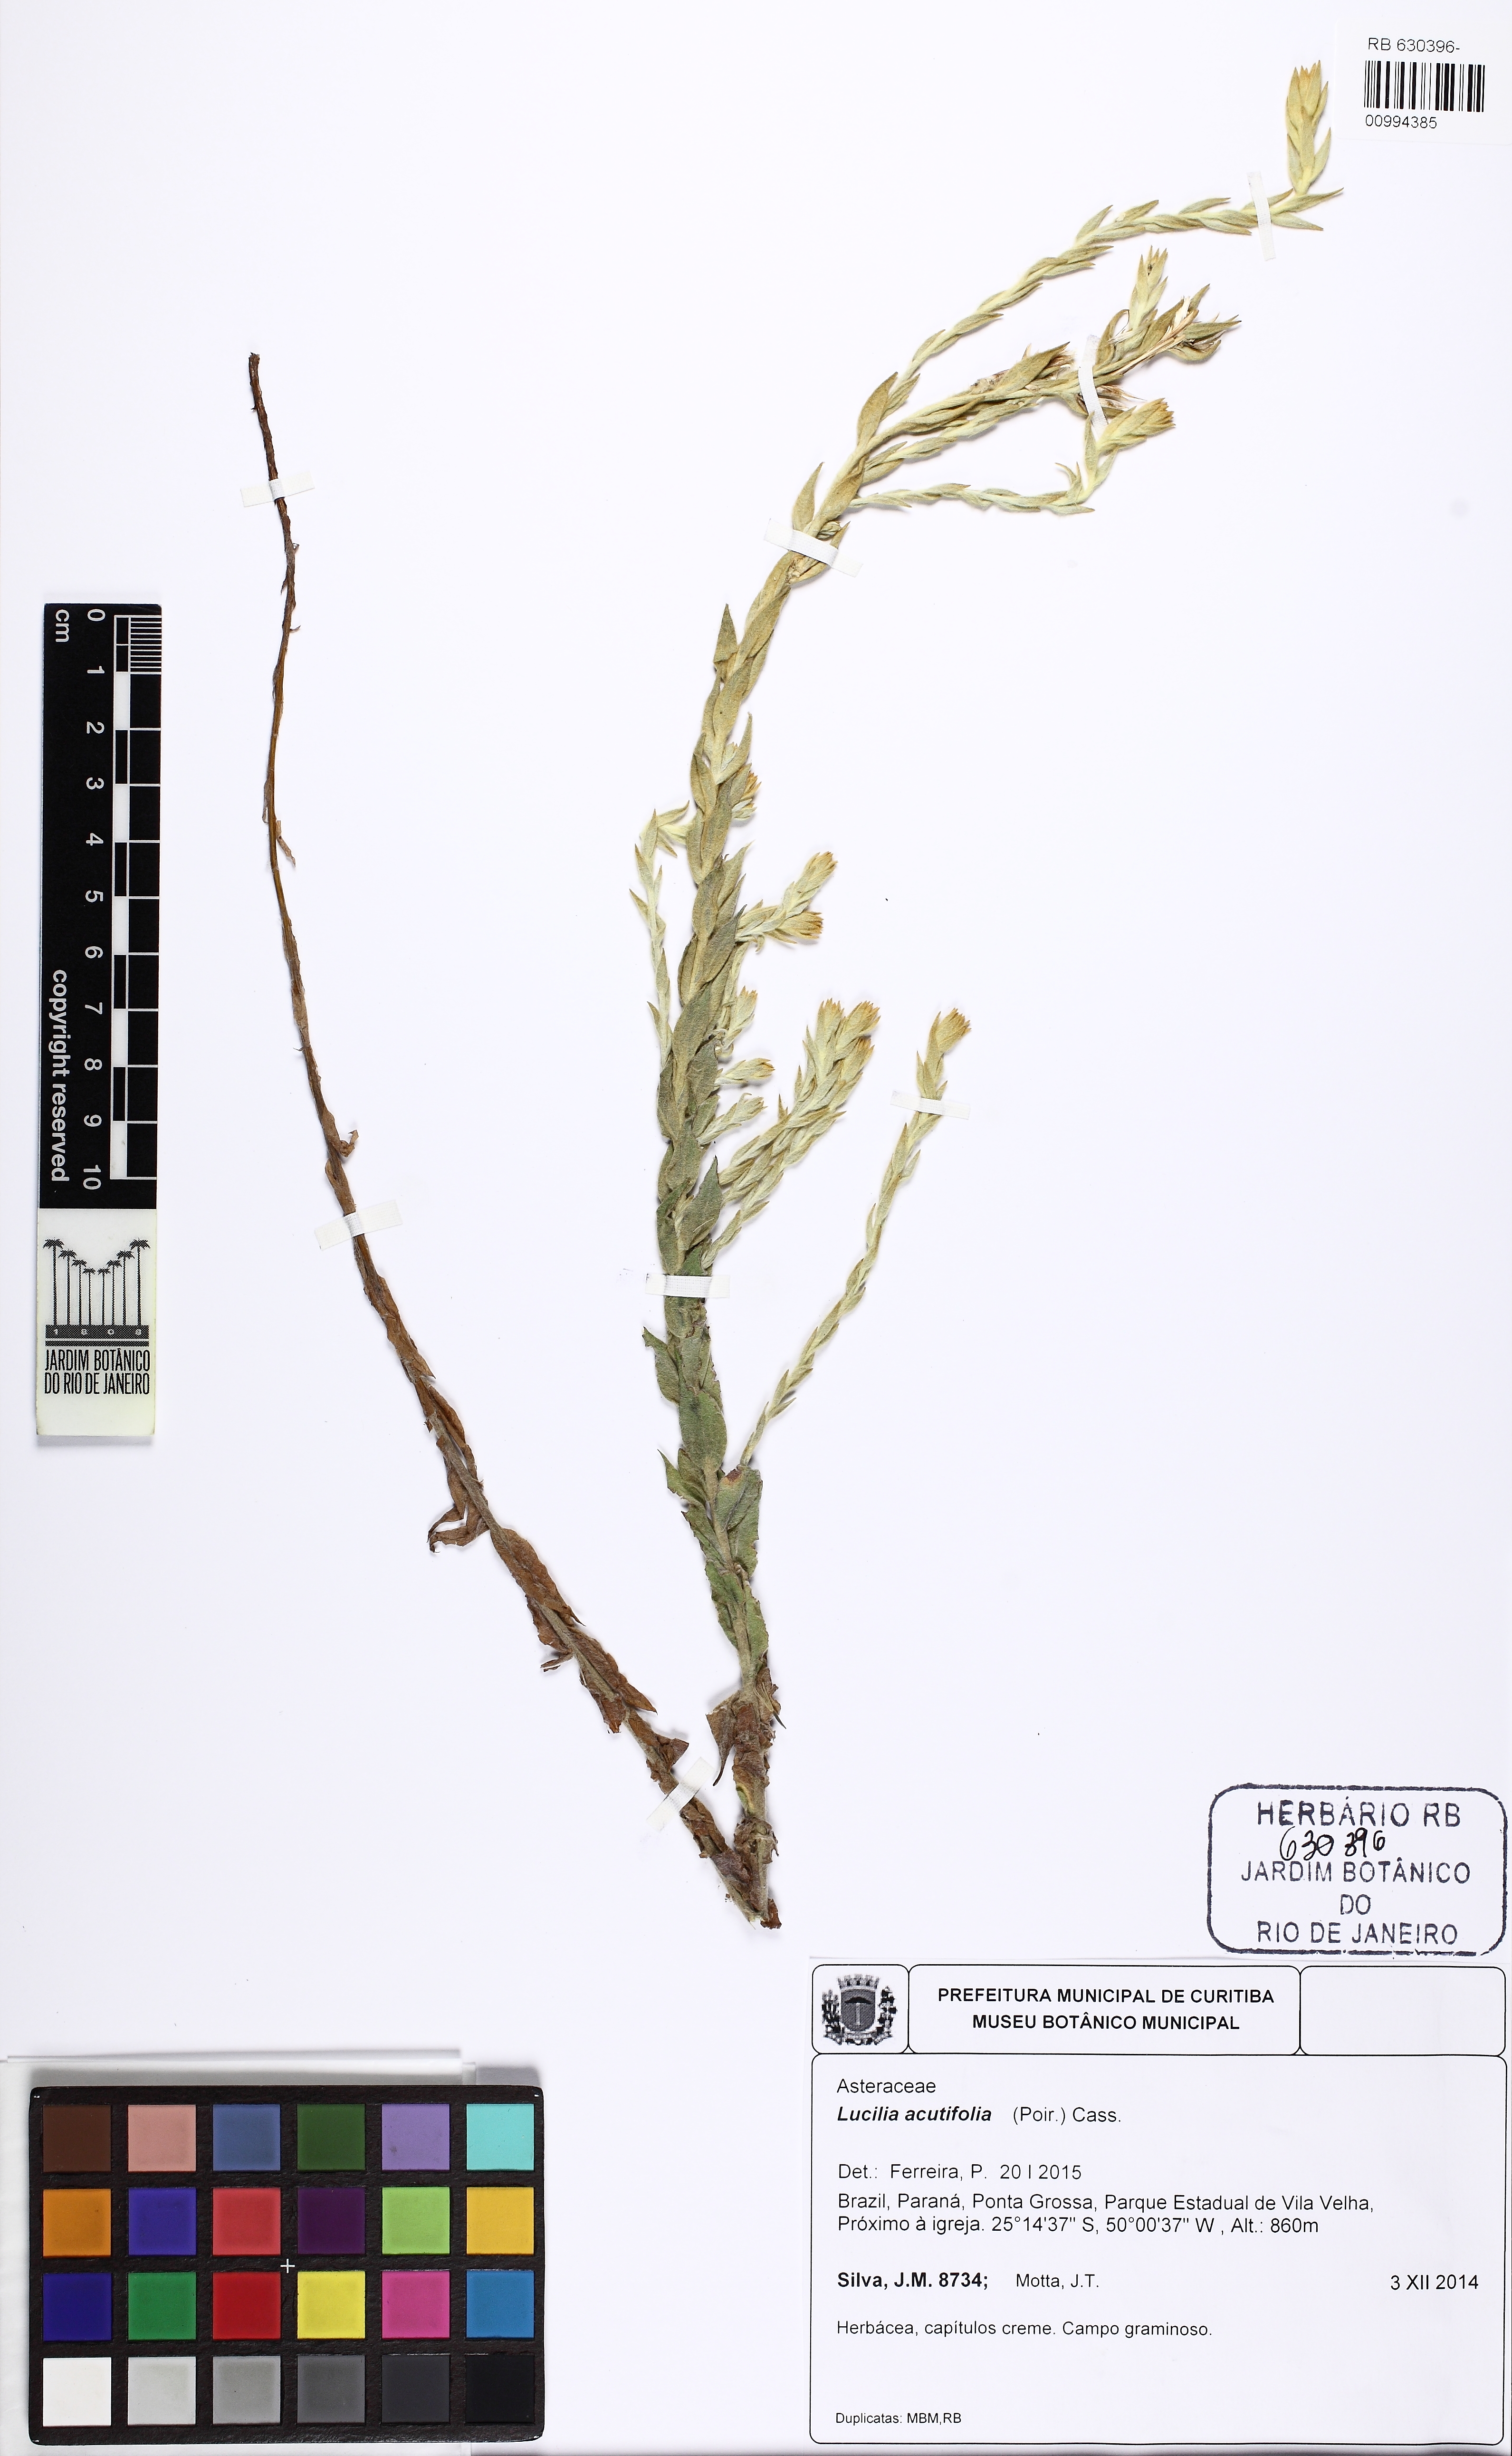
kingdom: Plantae
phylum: Tracheophyta
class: Magnoliopsida
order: Asterales
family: Asteraceae
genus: Lucilia
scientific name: Lucilia acutifolia
